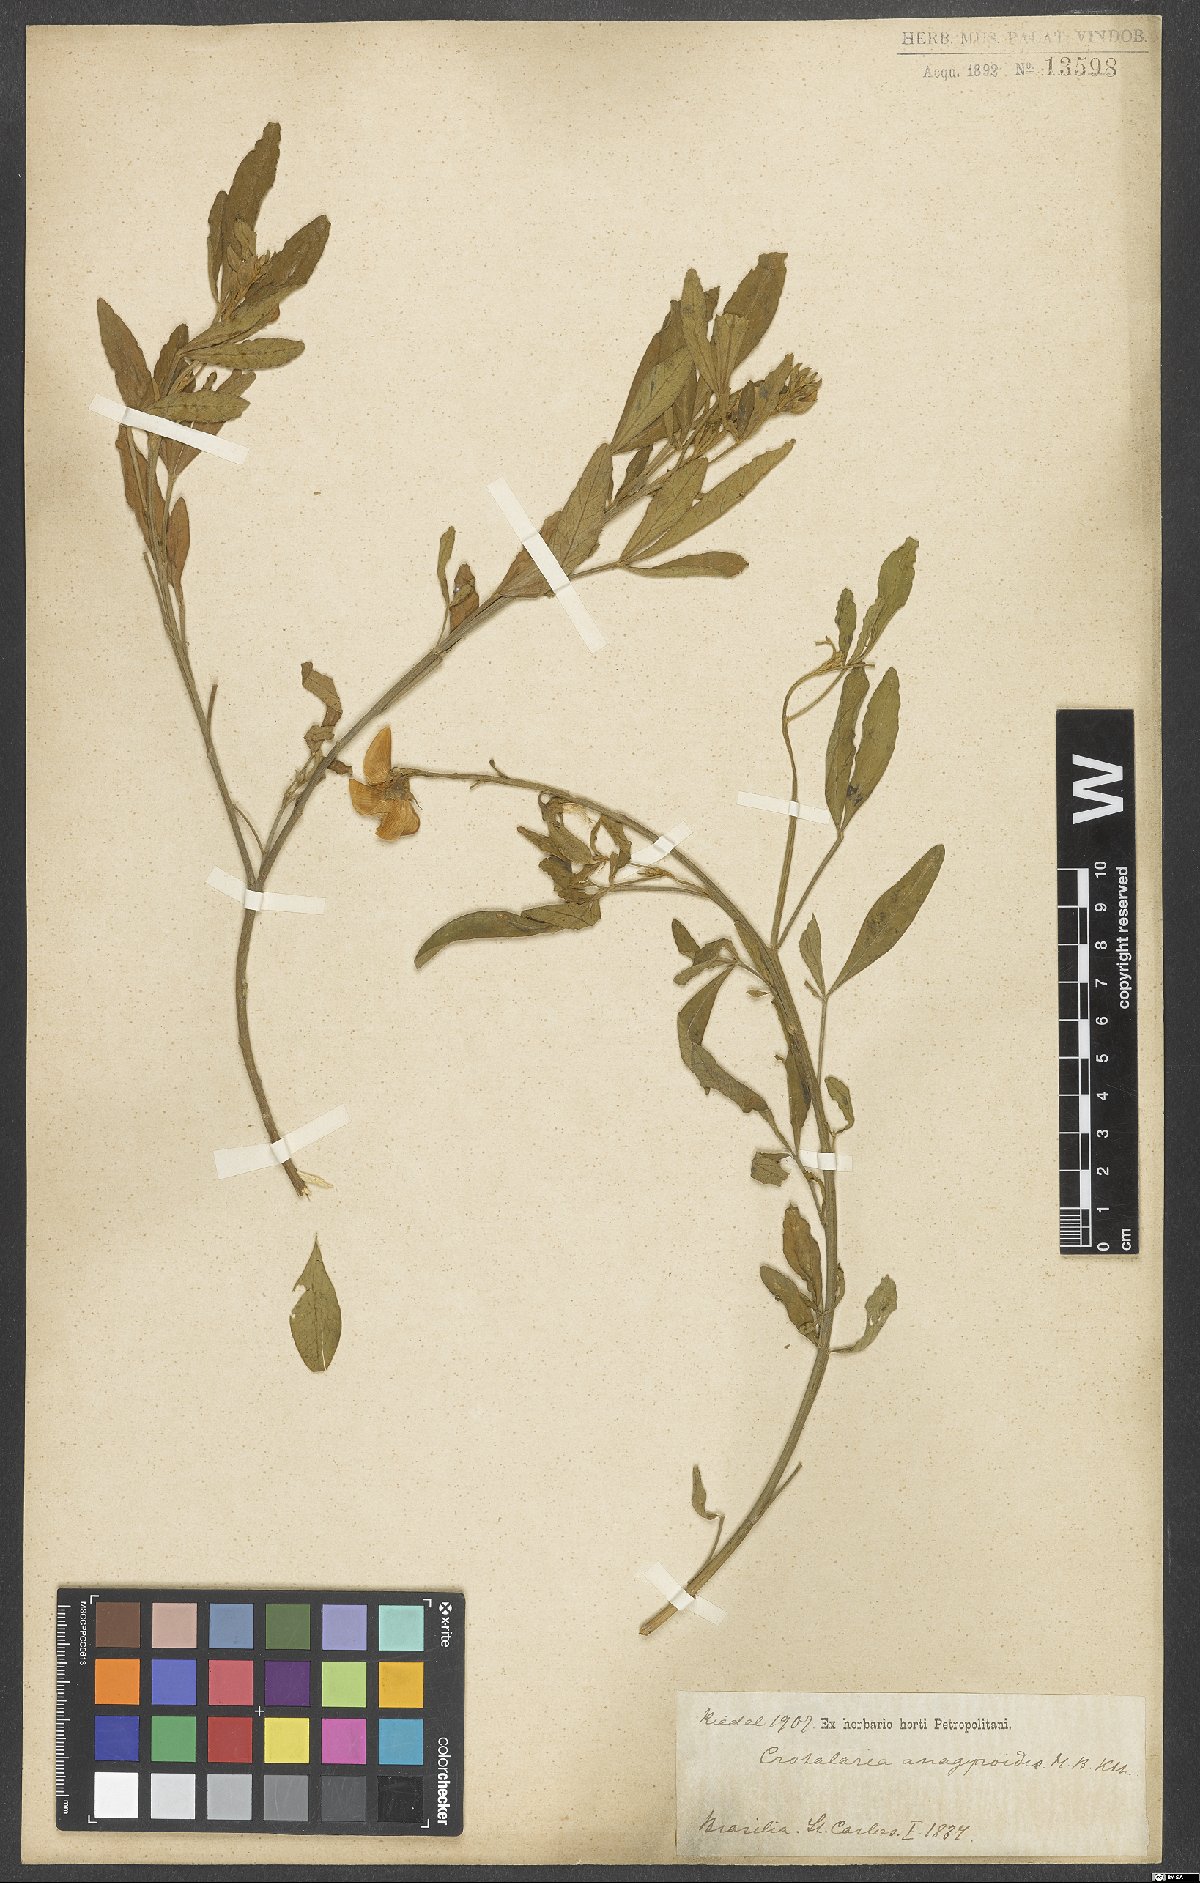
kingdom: Plantae
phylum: Tracheophyta
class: Magnoliopsida
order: Fabales
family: Fabaceae
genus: Crotalaria
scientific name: Crotalaria micans
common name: Caracas rattlebox
